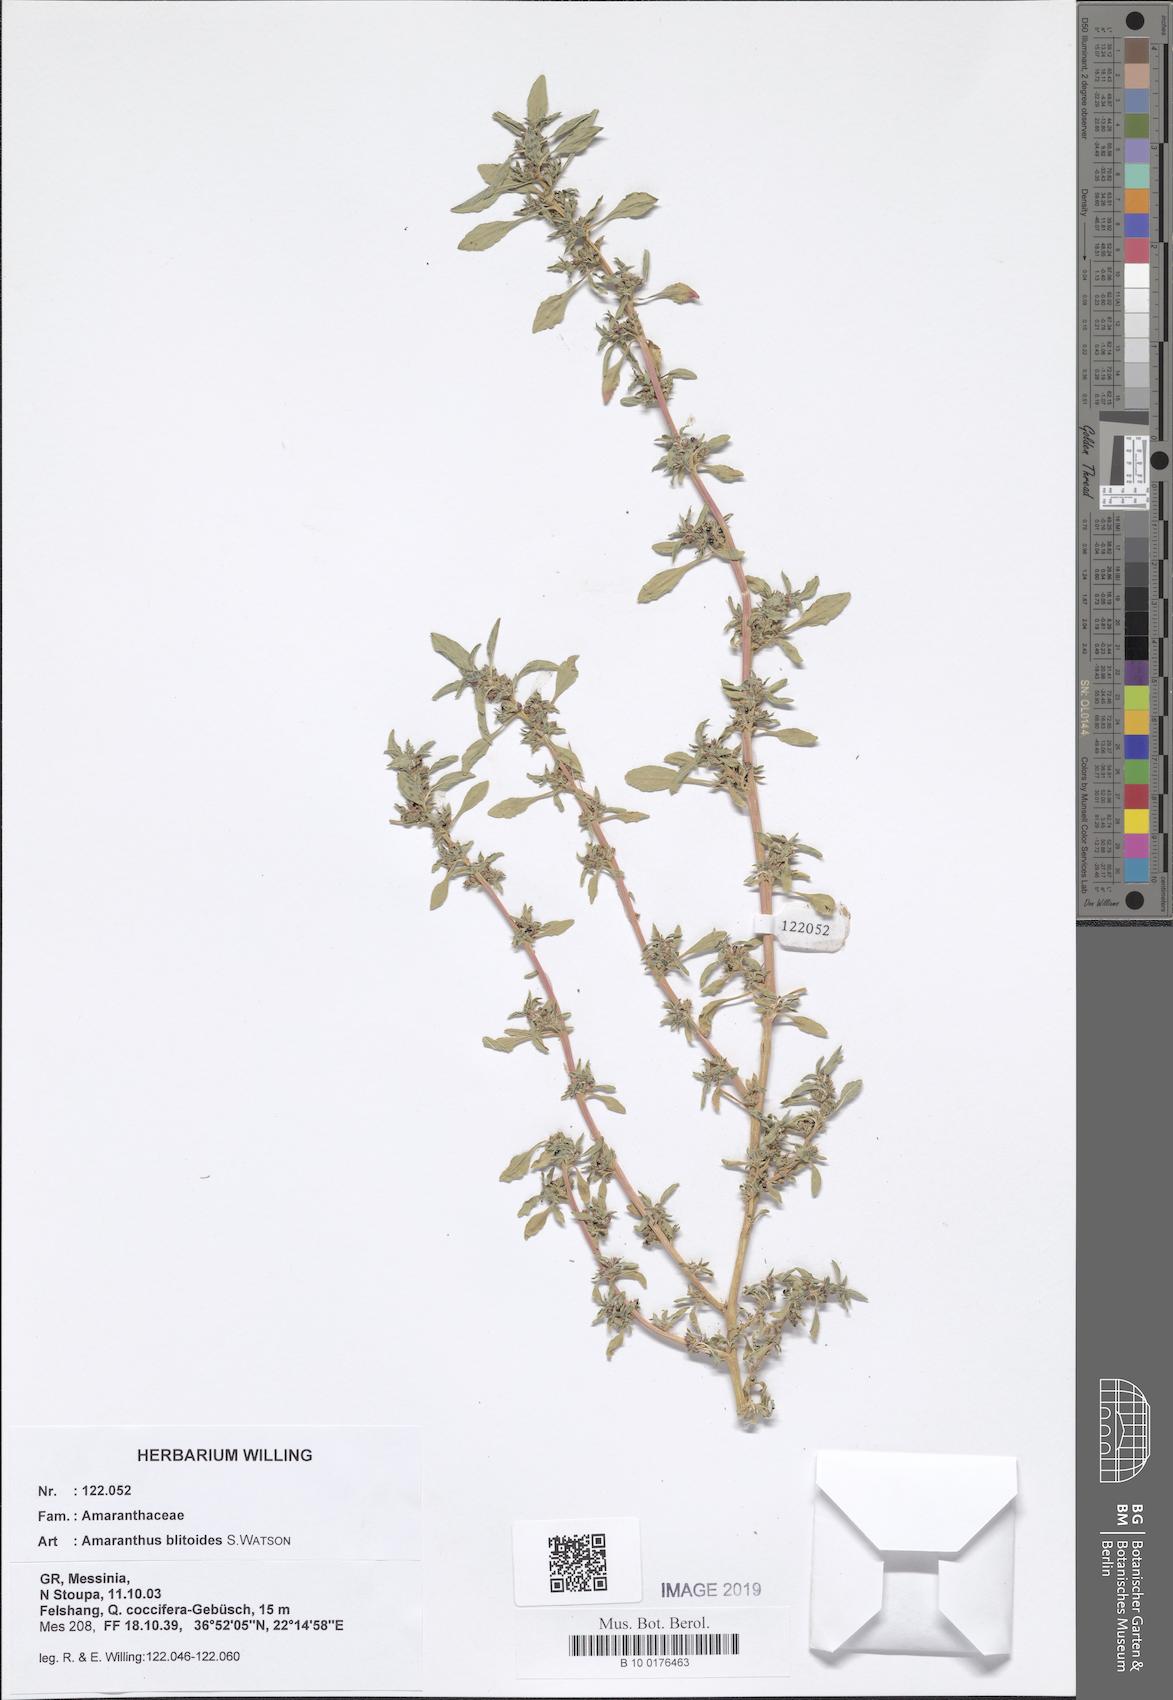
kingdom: Plantae
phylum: Tracheophyta
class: Magnoliopsida
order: Caryophyllales
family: Amaranthaceae
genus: Amaranthus
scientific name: Amaranthus blitoides
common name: Prostrate pigweed
